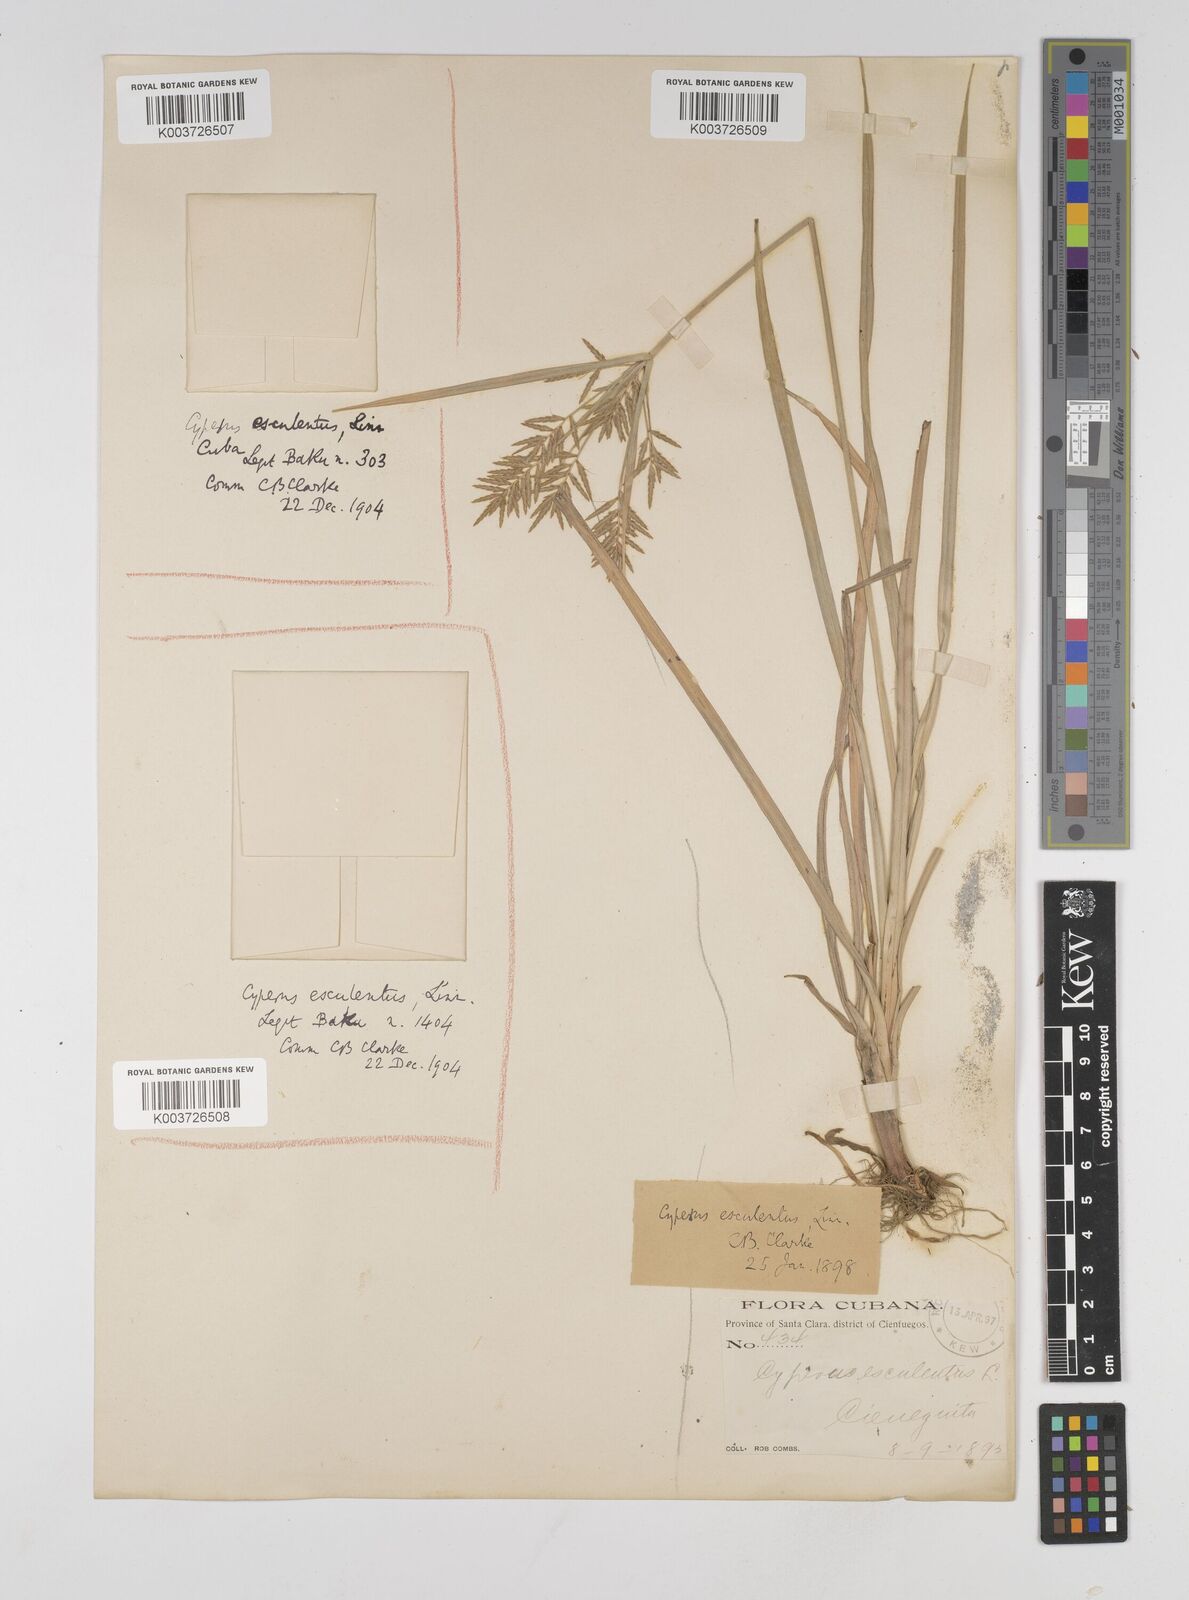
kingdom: Plantae
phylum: Tracheophyta
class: Liliopsida
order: Poales
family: Cyperaceae
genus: Cyperus
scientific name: Cyperus esculentus
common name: Yellow nutsedge
